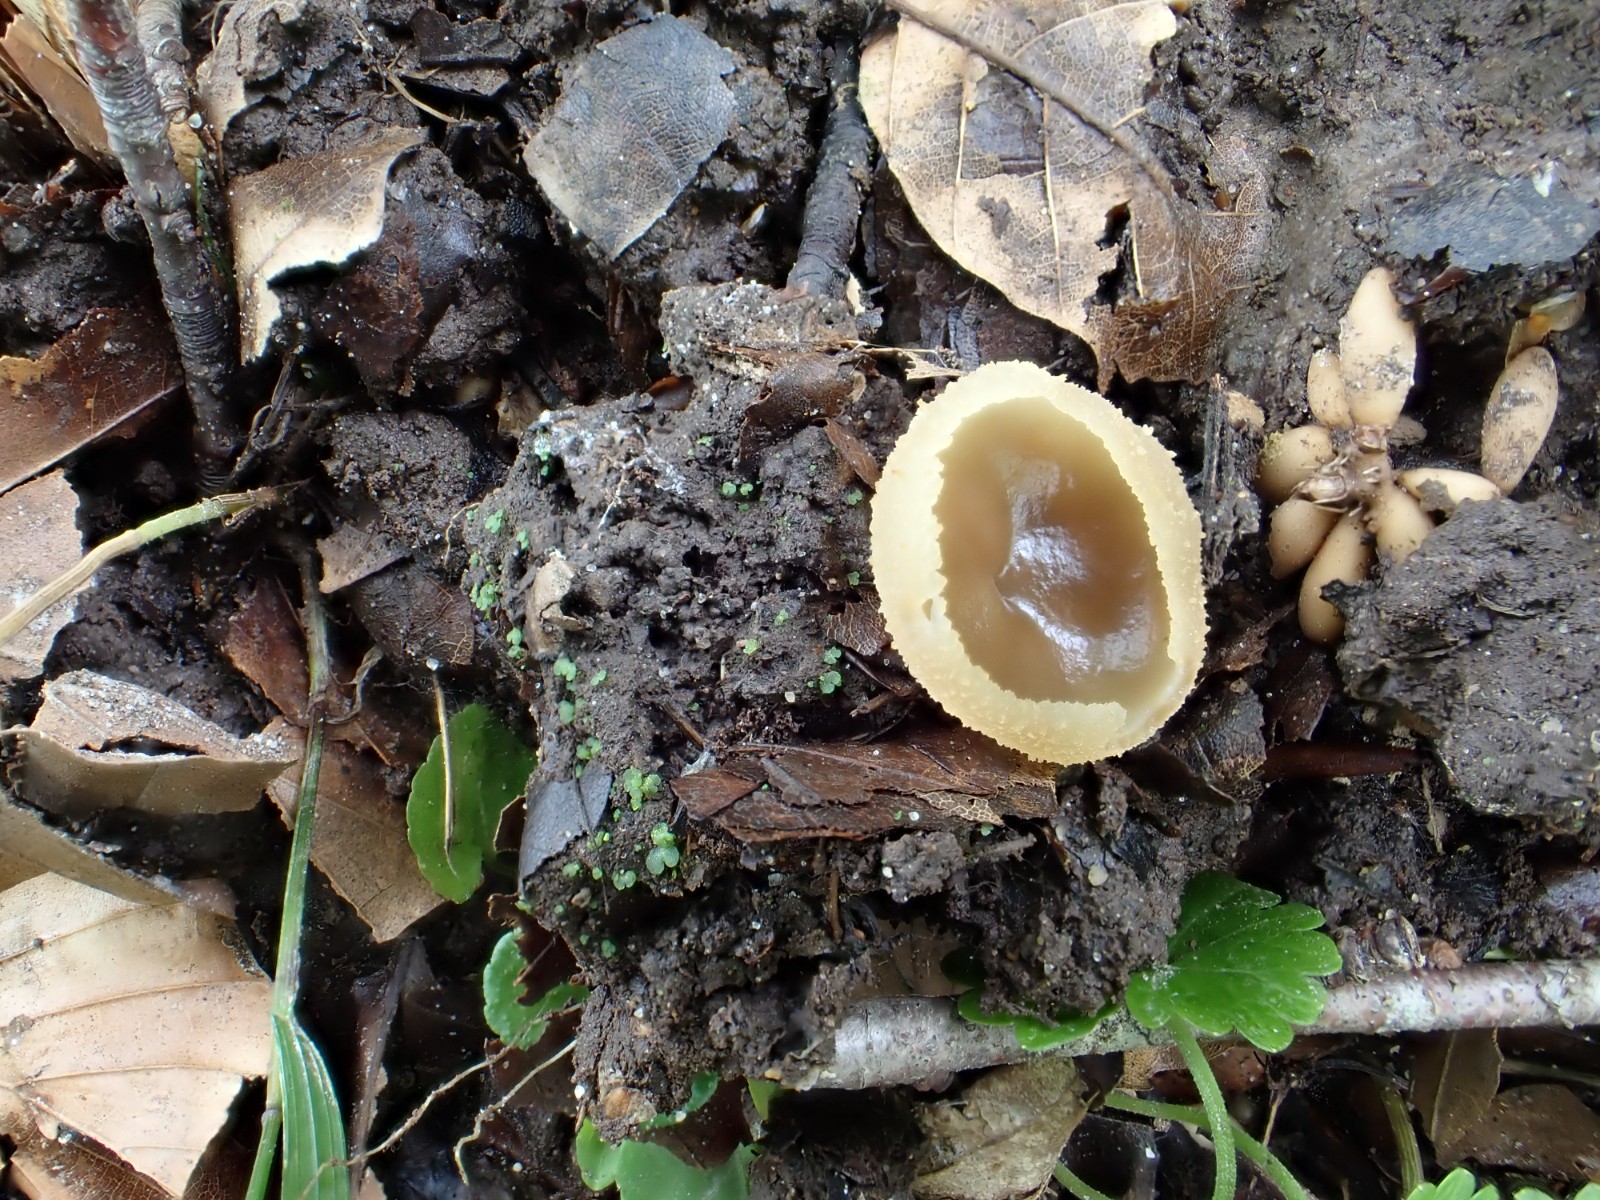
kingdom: Fungi
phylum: Ascomycota
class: Pezizomycetes
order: Pezizales
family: Pezizaceae
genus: Peziza
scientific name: Peziza
